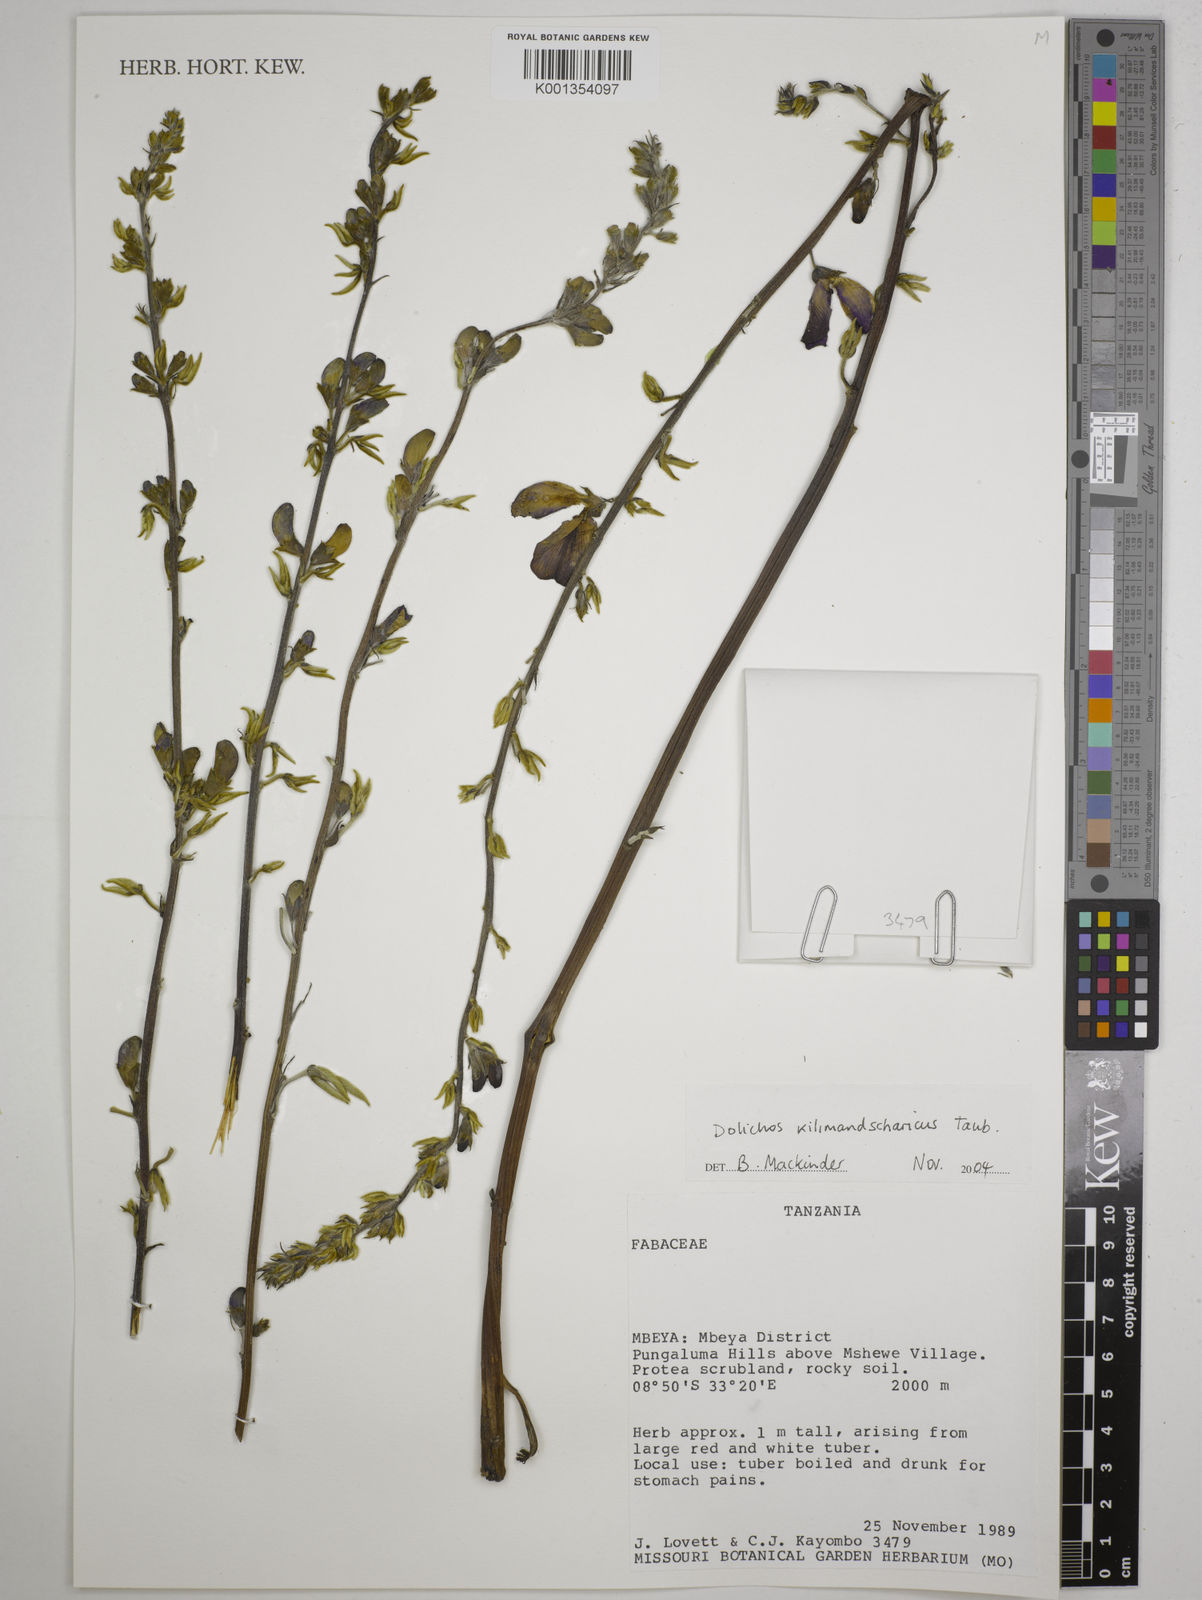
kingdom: Plantae
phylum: Tracheophyta
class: Magnoliopsida
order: Fabales
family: Fabaceae
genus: Dolichos
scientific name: Dolichos kilimandscharicus
